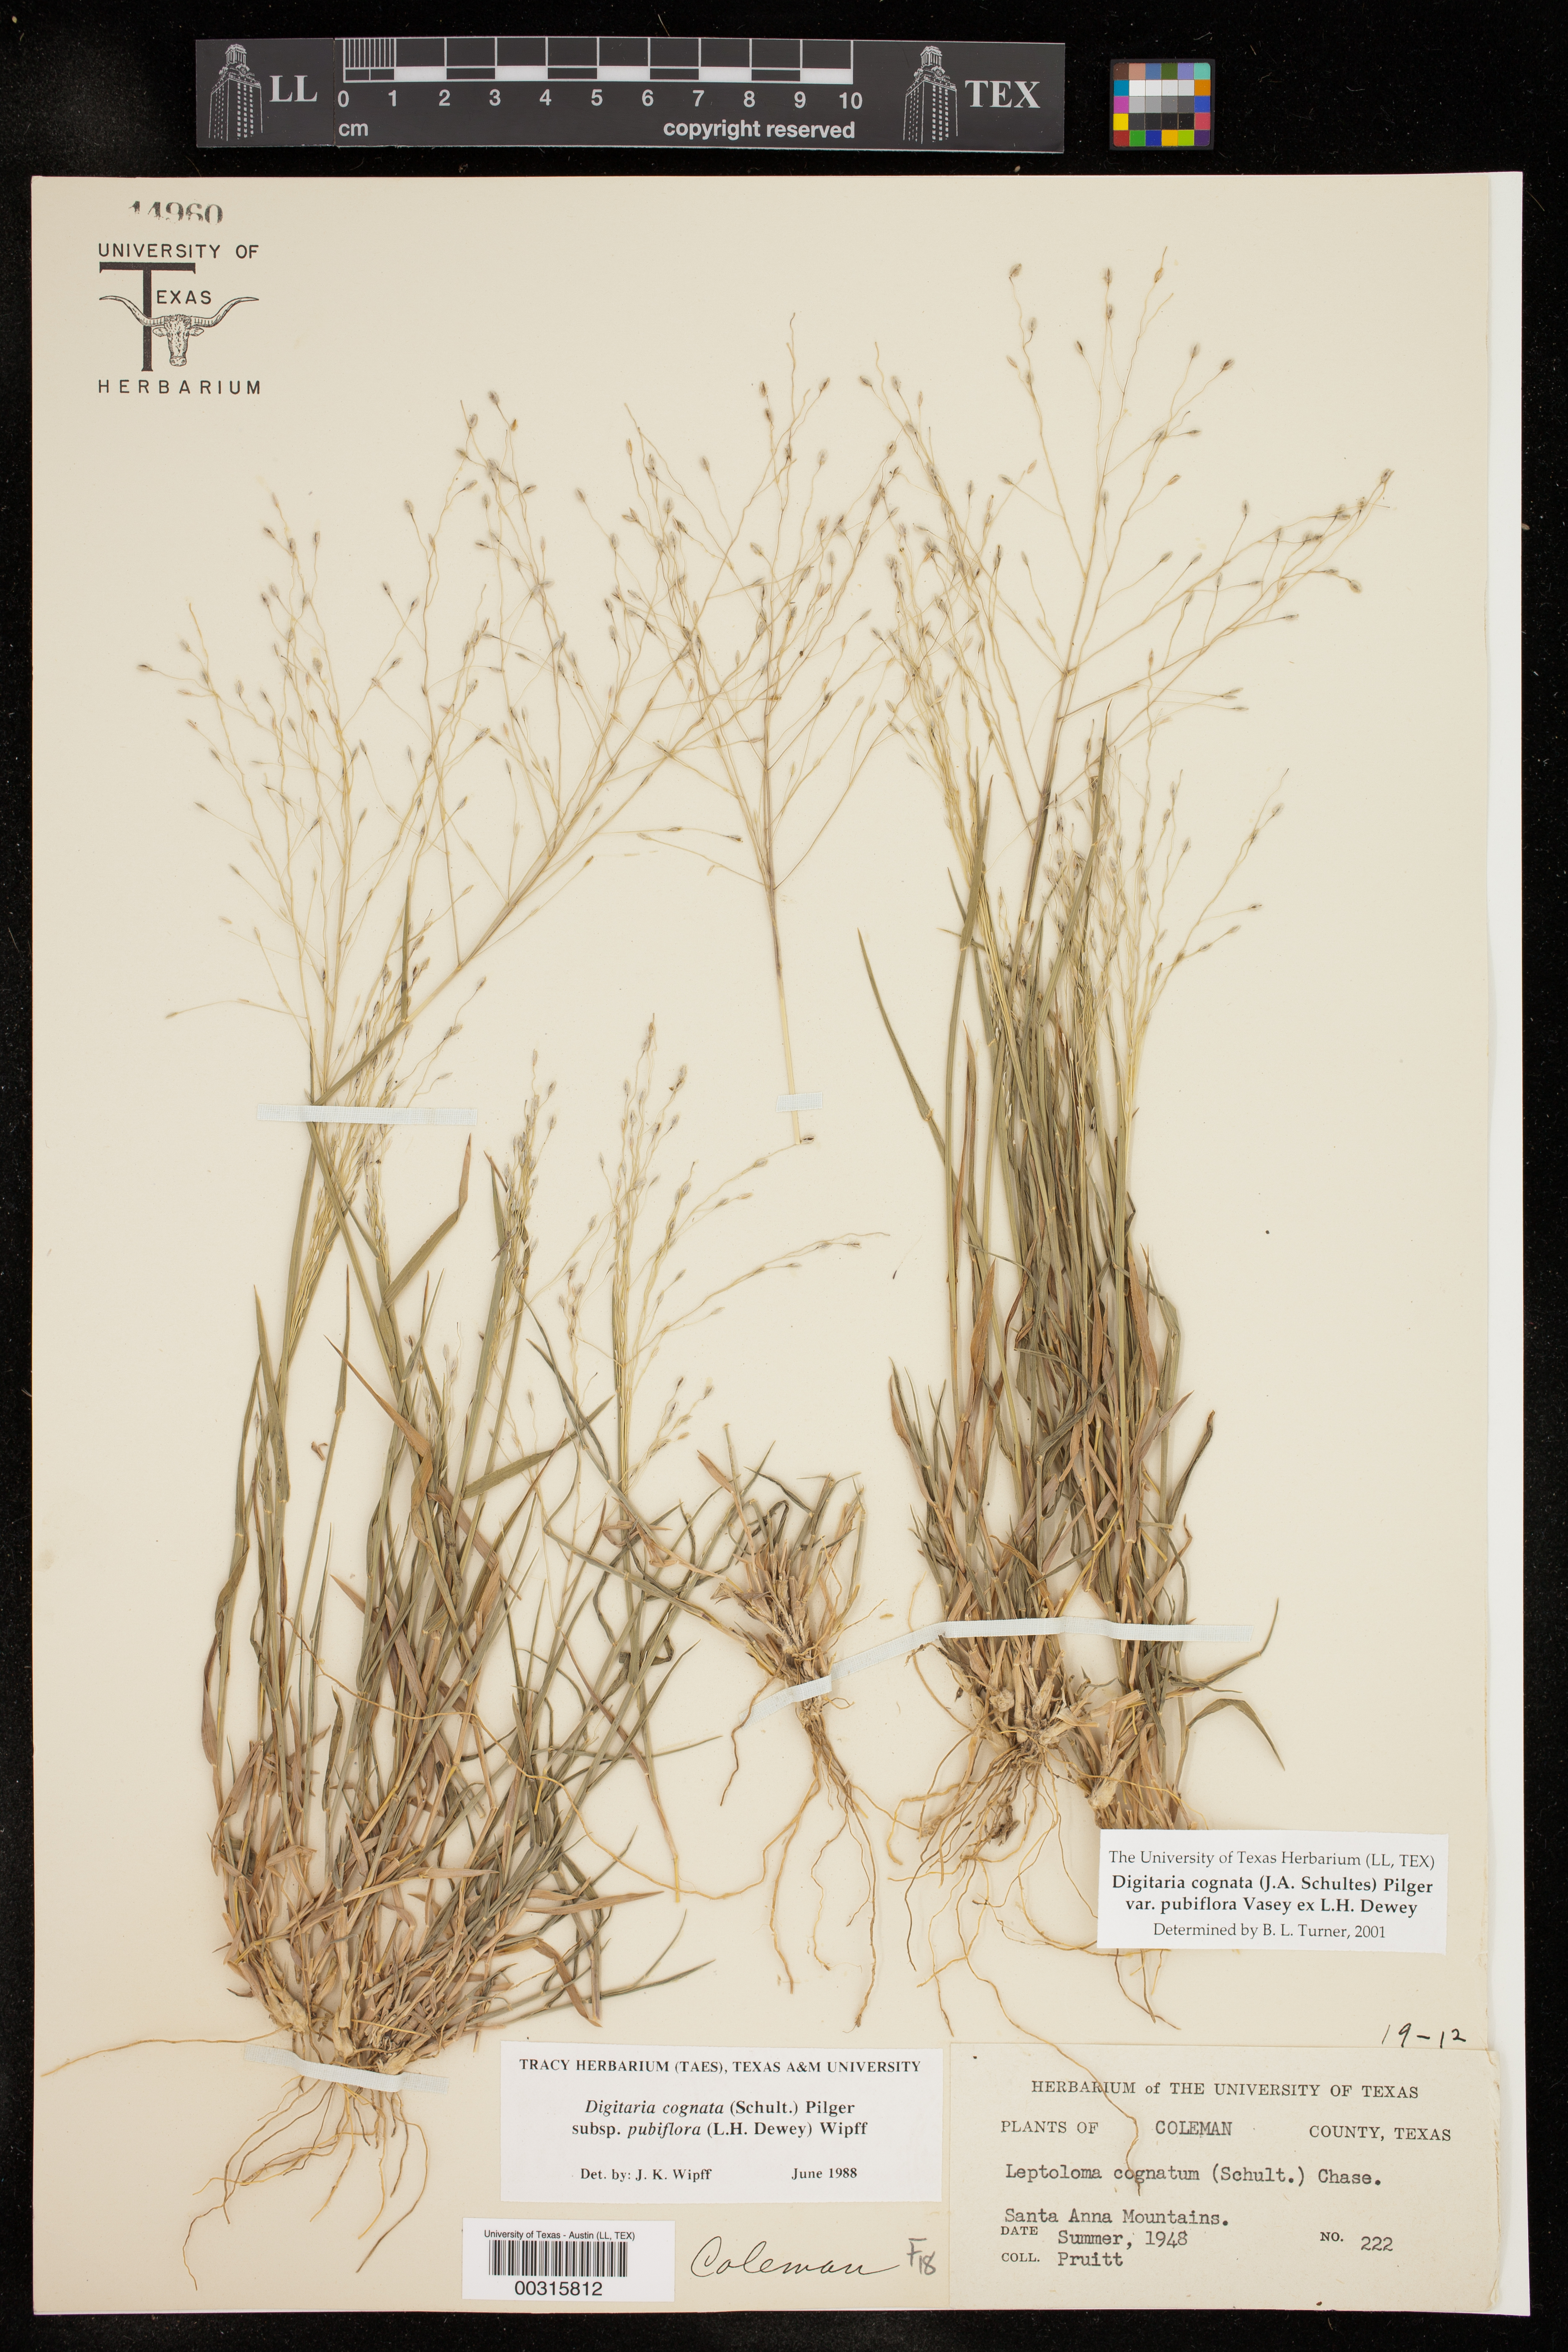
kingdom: Plantae
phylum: Tracheophyta
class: Liliopsida
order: Poales
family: Poaceae
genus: Digitaria
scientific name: Digitaria cognata
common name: Fall witchgrass
